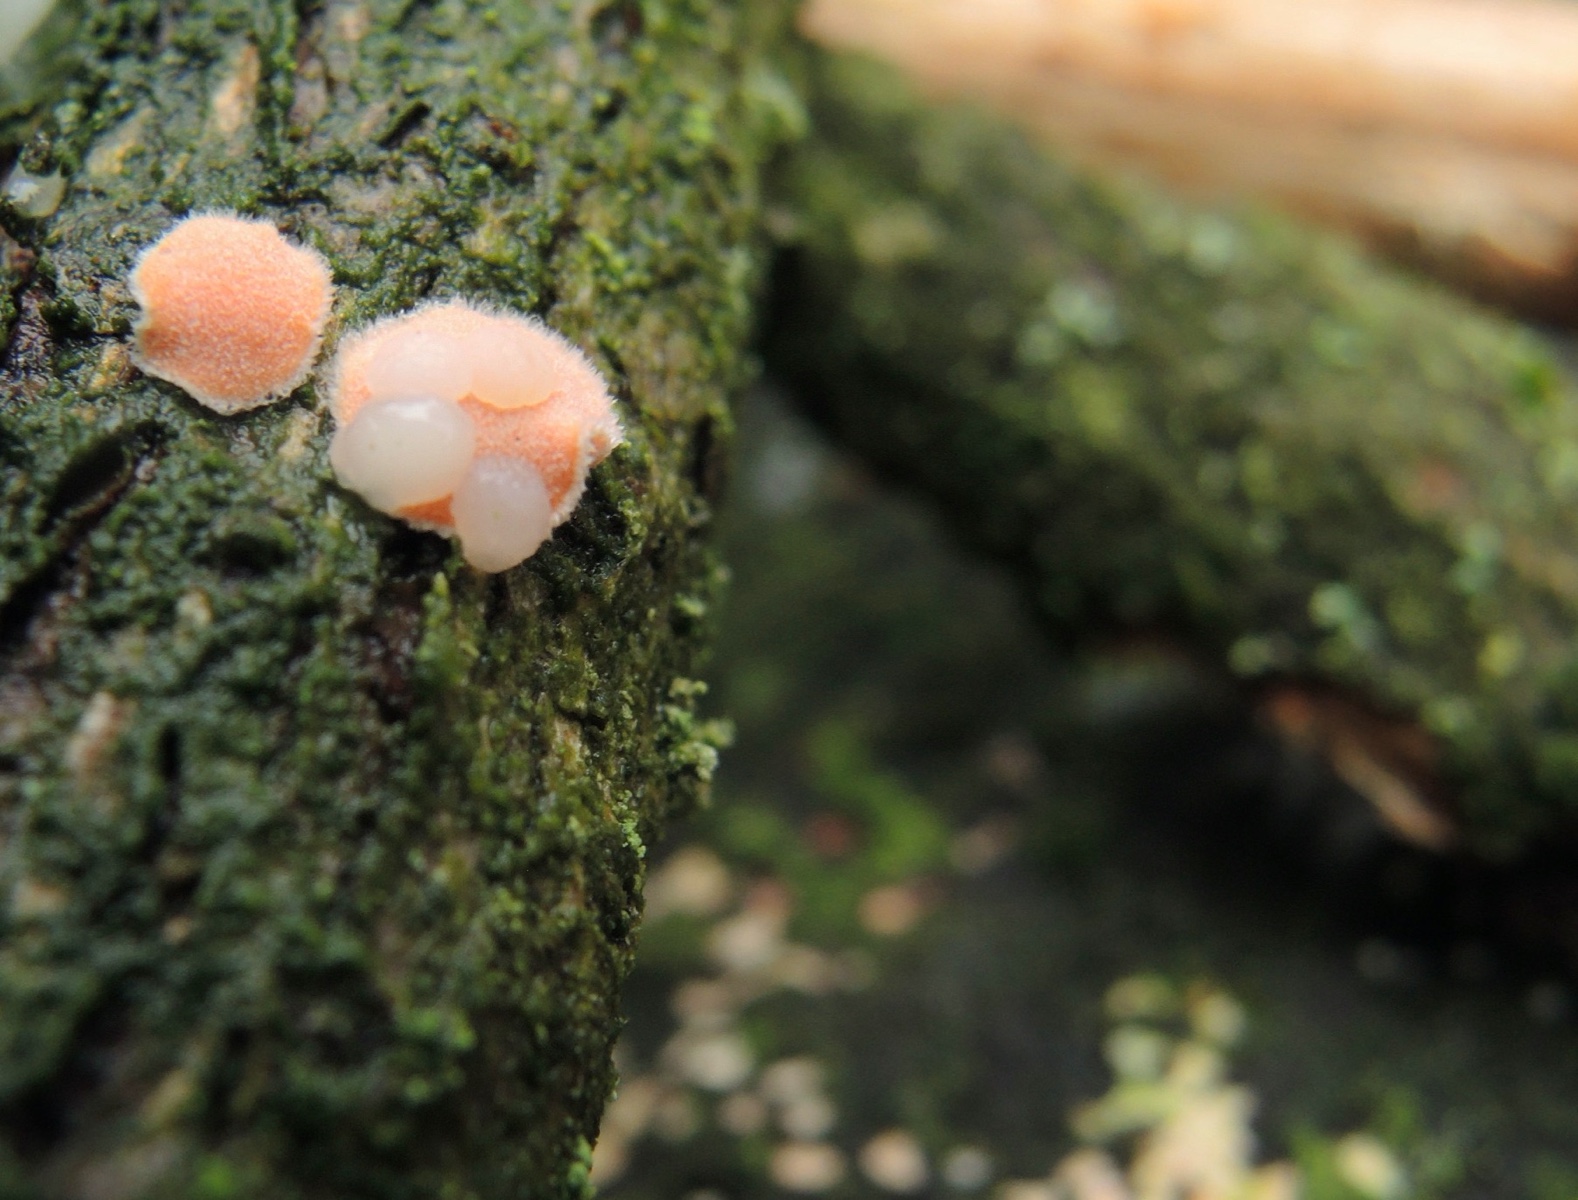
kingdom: Fungi
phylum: Basidiomycota
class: Tremellomycetes
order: Tremellales
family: Tremellaceae
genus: Phaeotremella
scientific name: Phaeotremella mycetophiloides
